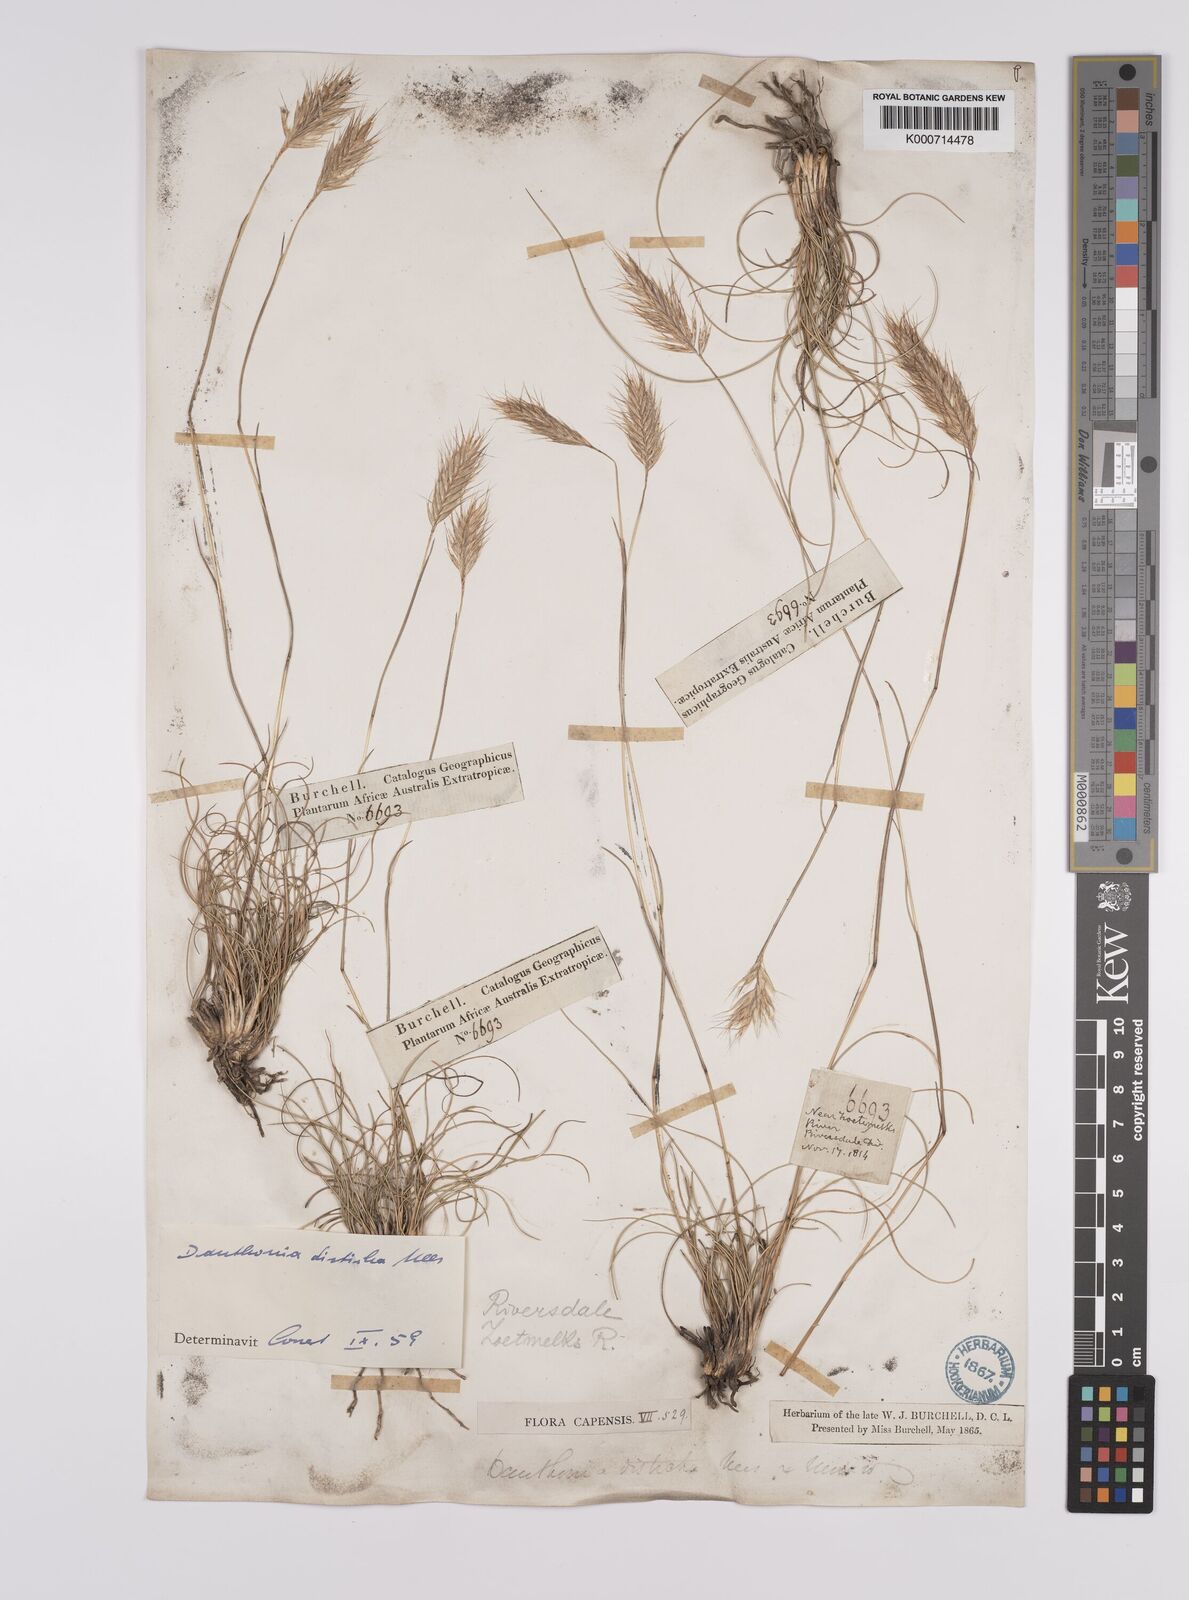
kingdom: Plantae
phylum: Tracheophyta
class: Liliopsida
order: Poales
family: Poaceae
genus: Tenaxia
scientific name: Tenaxia disticha
